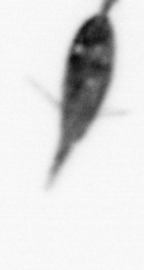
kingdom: Animalia
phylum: Arthropoda
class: Maxillopoda
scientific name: Maxillopoda
